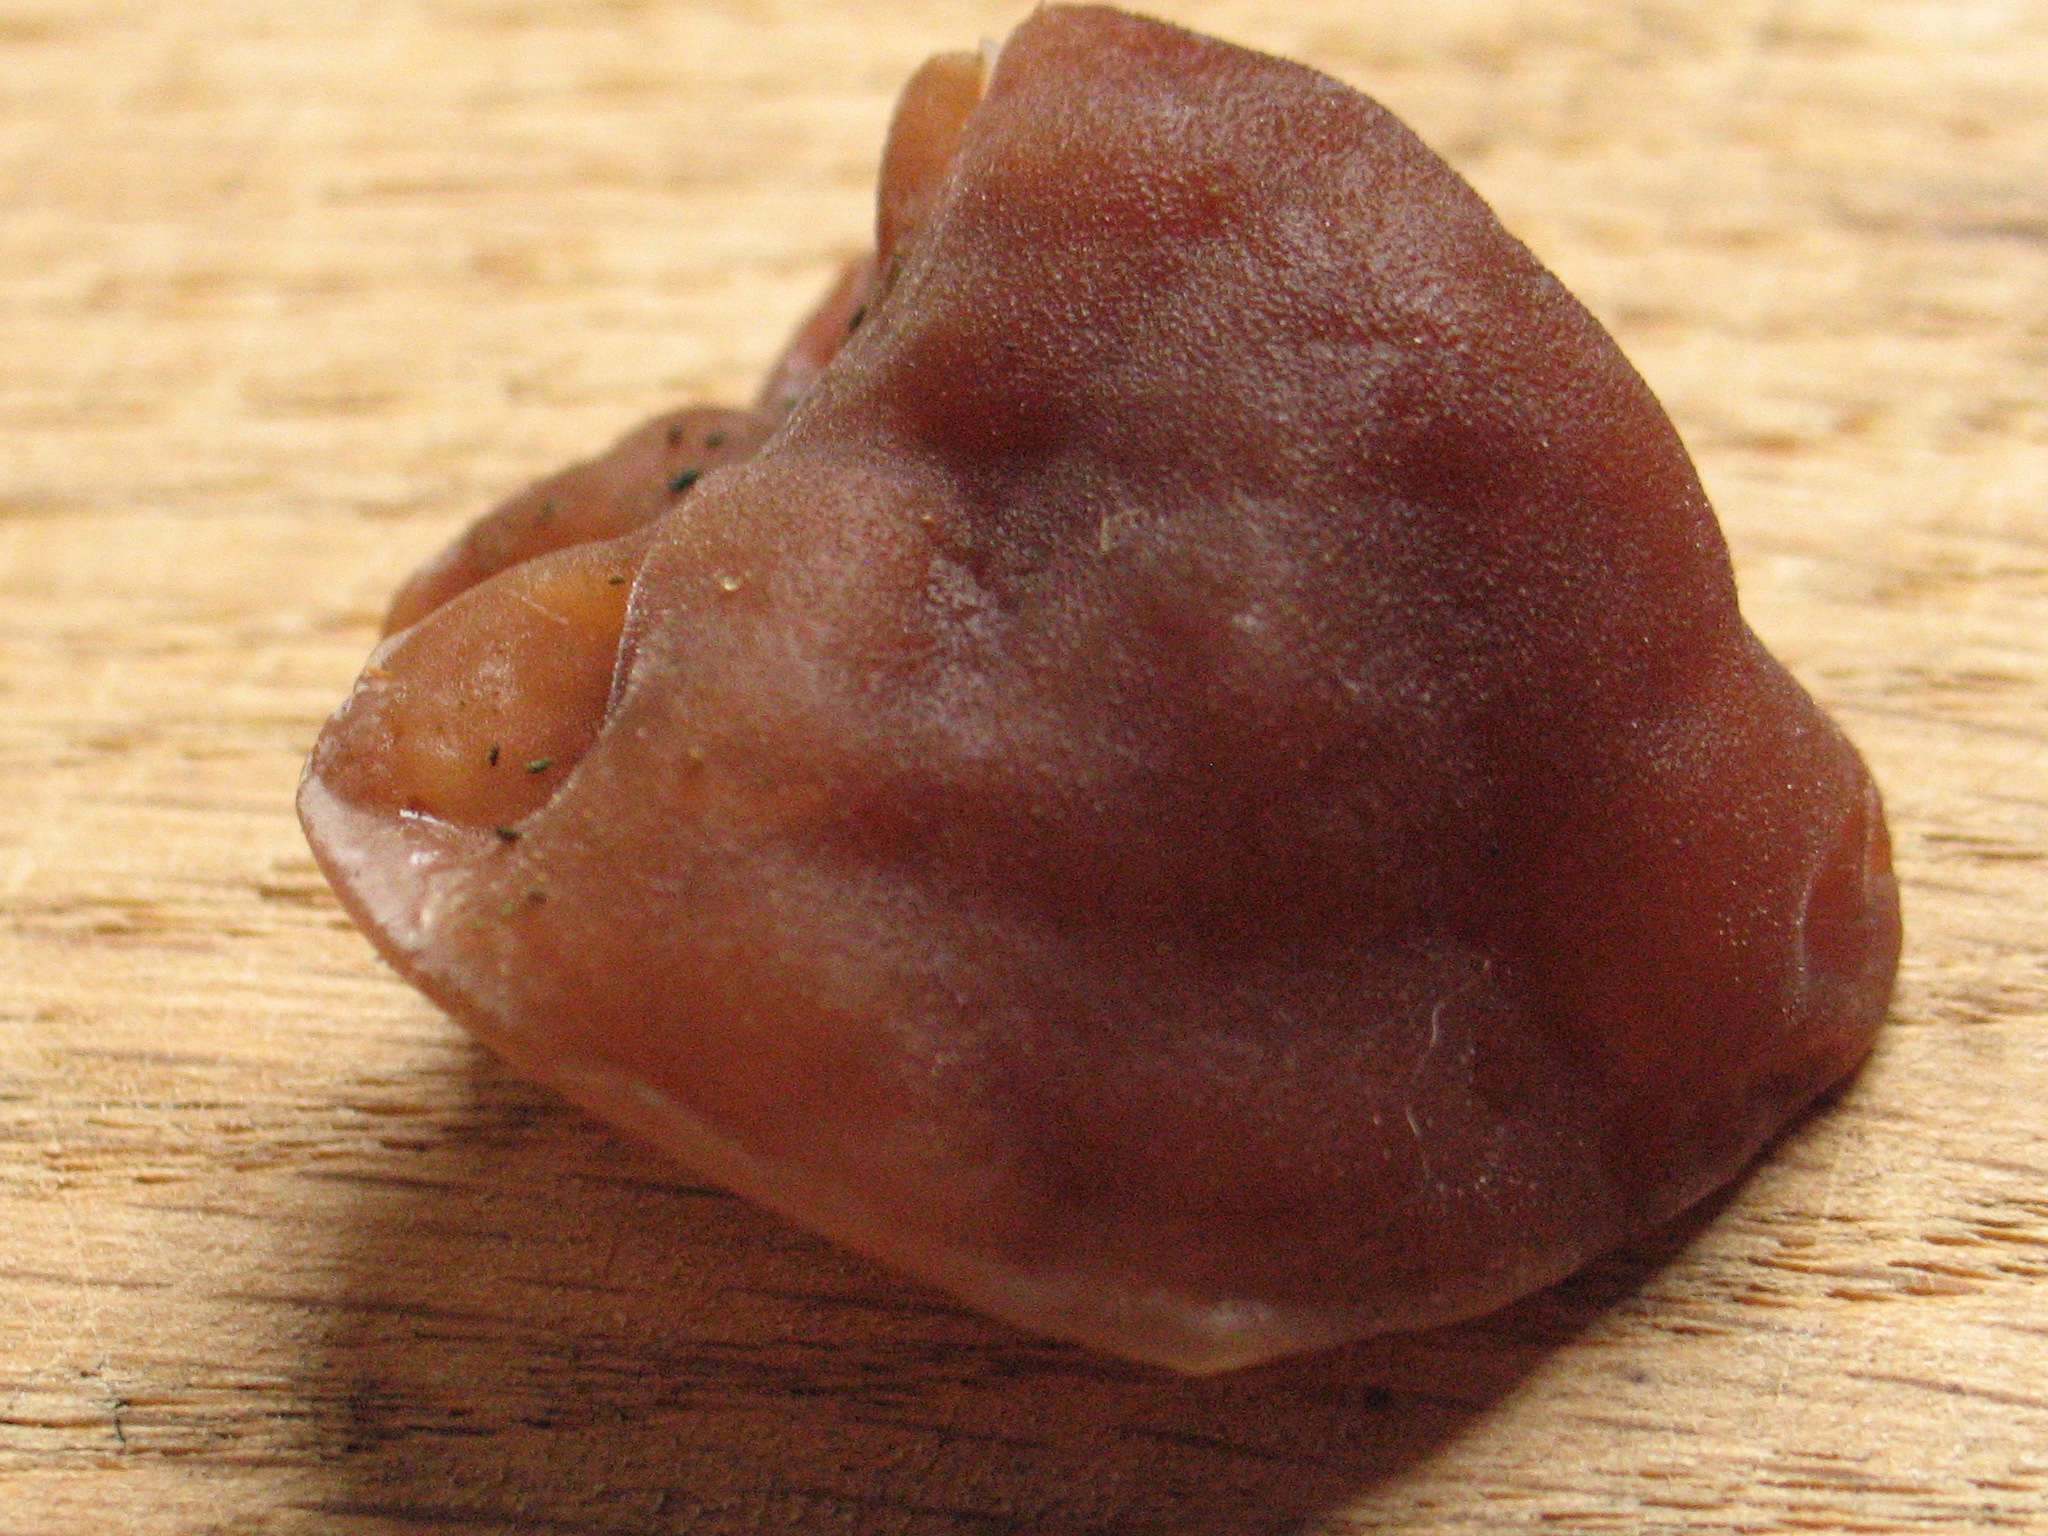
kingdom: Fungi
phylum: Basidiomycota
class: Agaricomycetes
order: Auriculariales
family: Auriculariaceae
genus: Auricularia
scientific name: Auricularia auricula-judae
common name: almindelig judasøre
